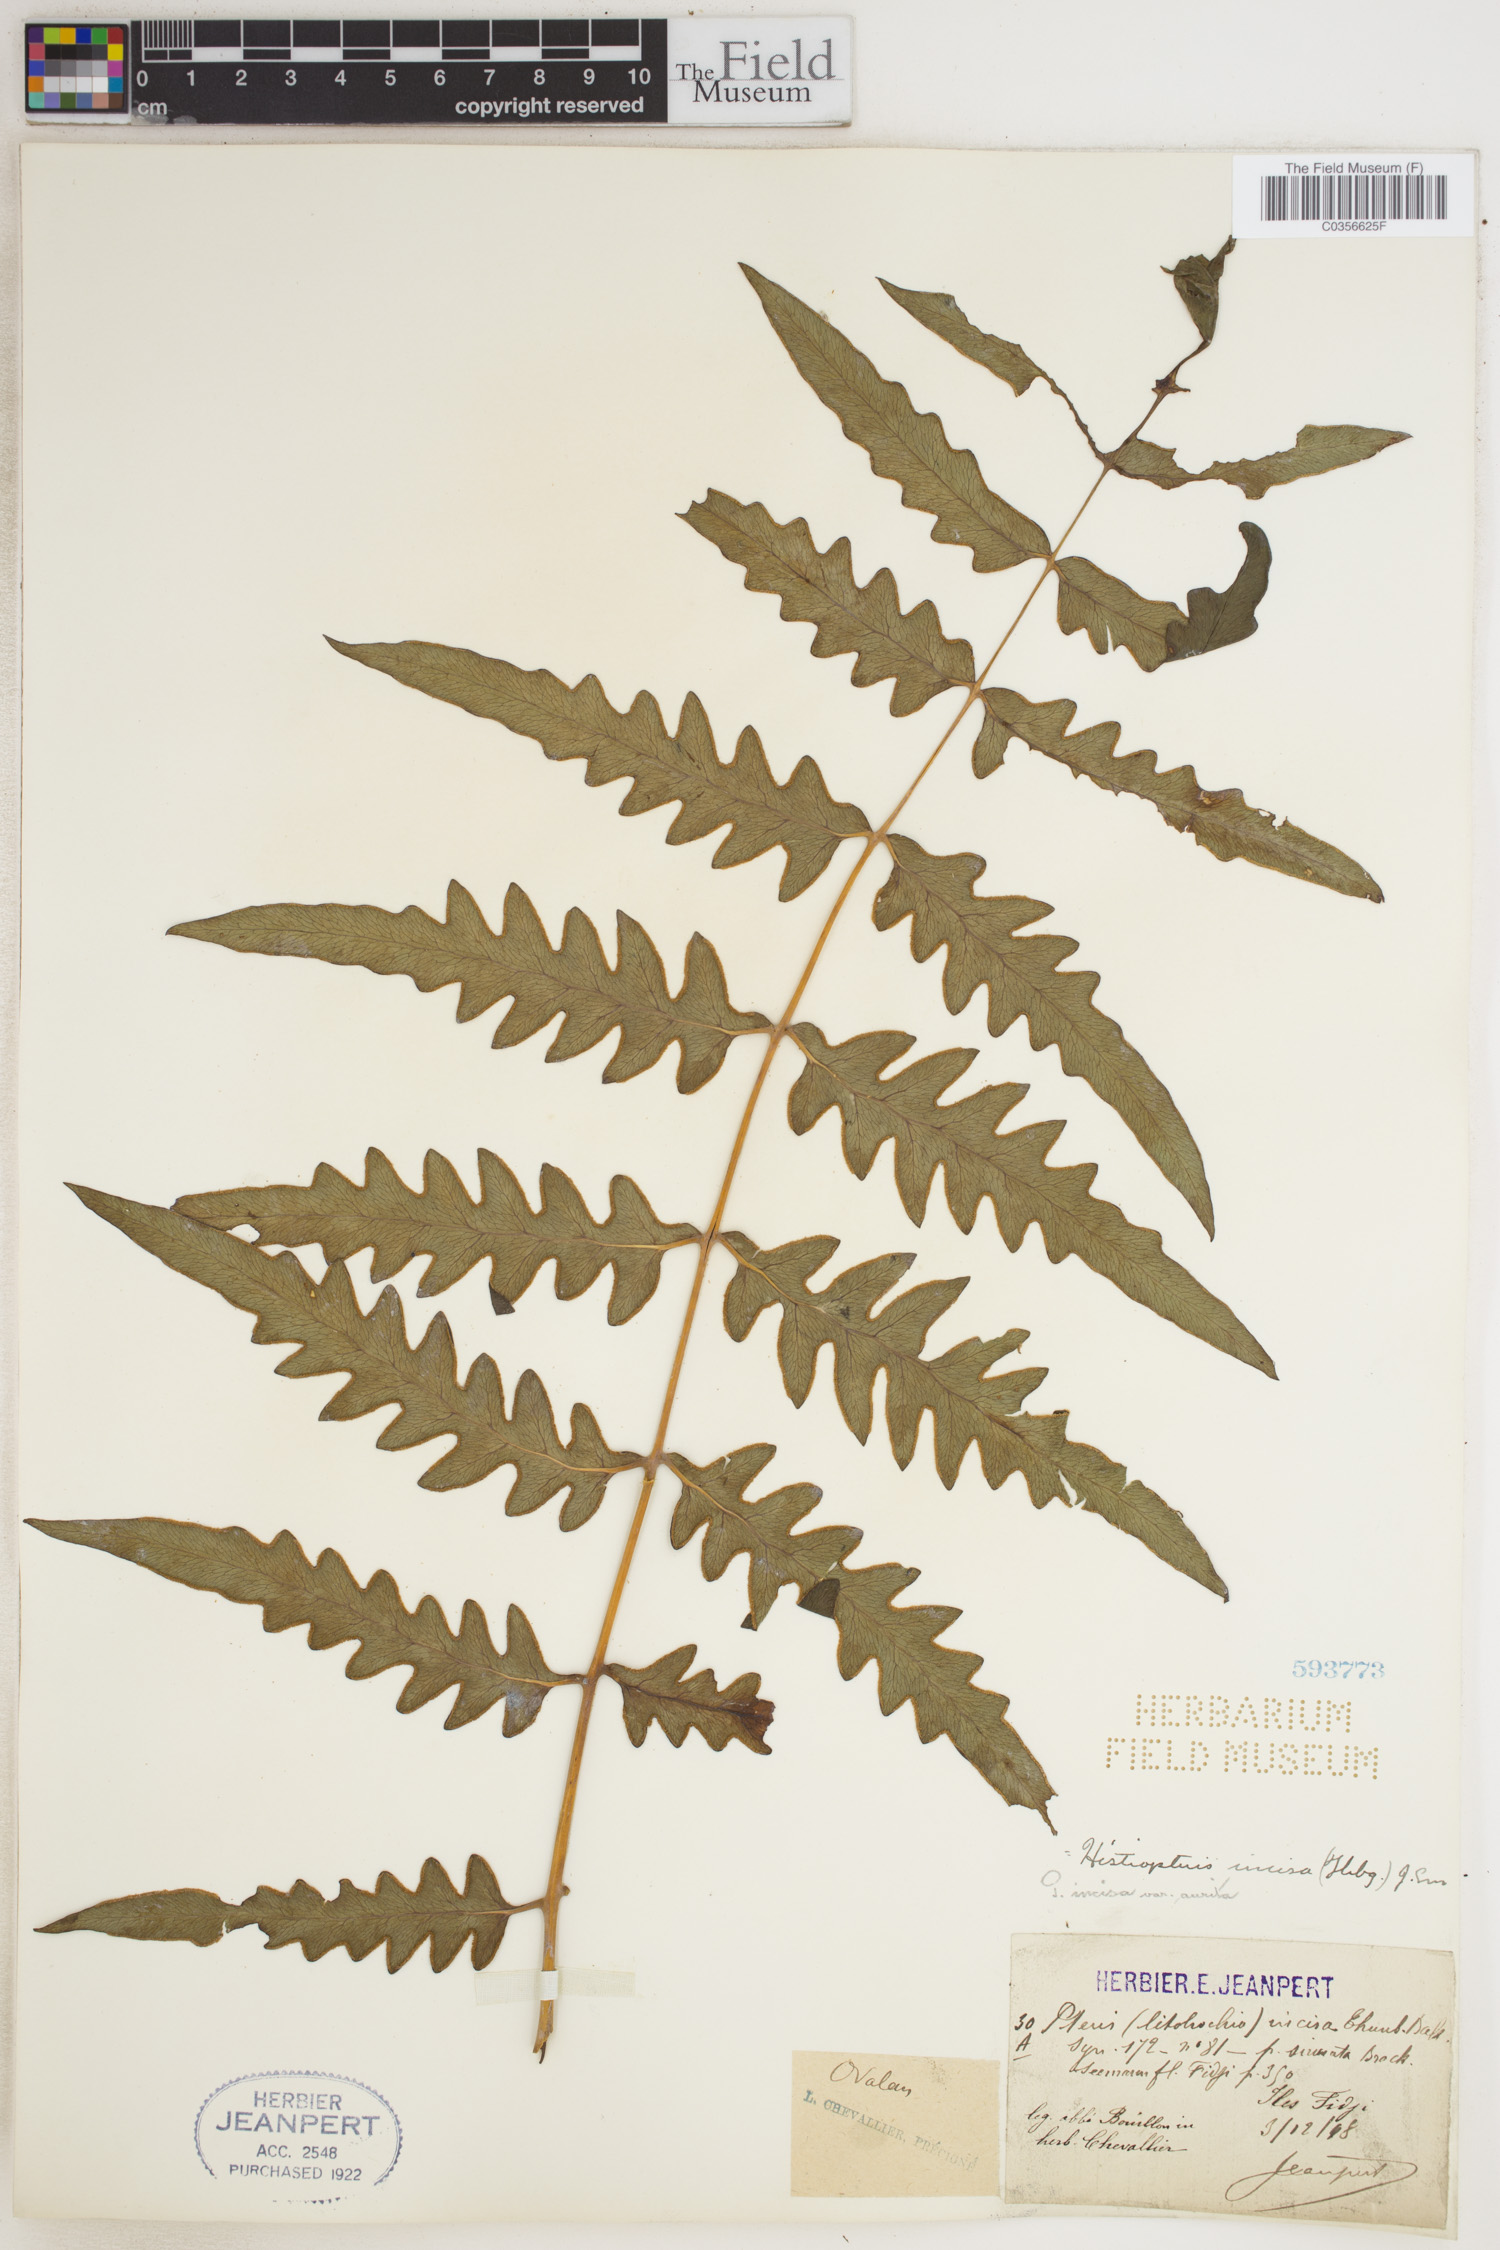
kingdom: Plantae
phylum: Tracheophyta
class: Polypodiopsida
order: Polypodiales
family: Dennstaedtiaceae
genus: Histiopteris
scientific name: Histiopteris incisa
